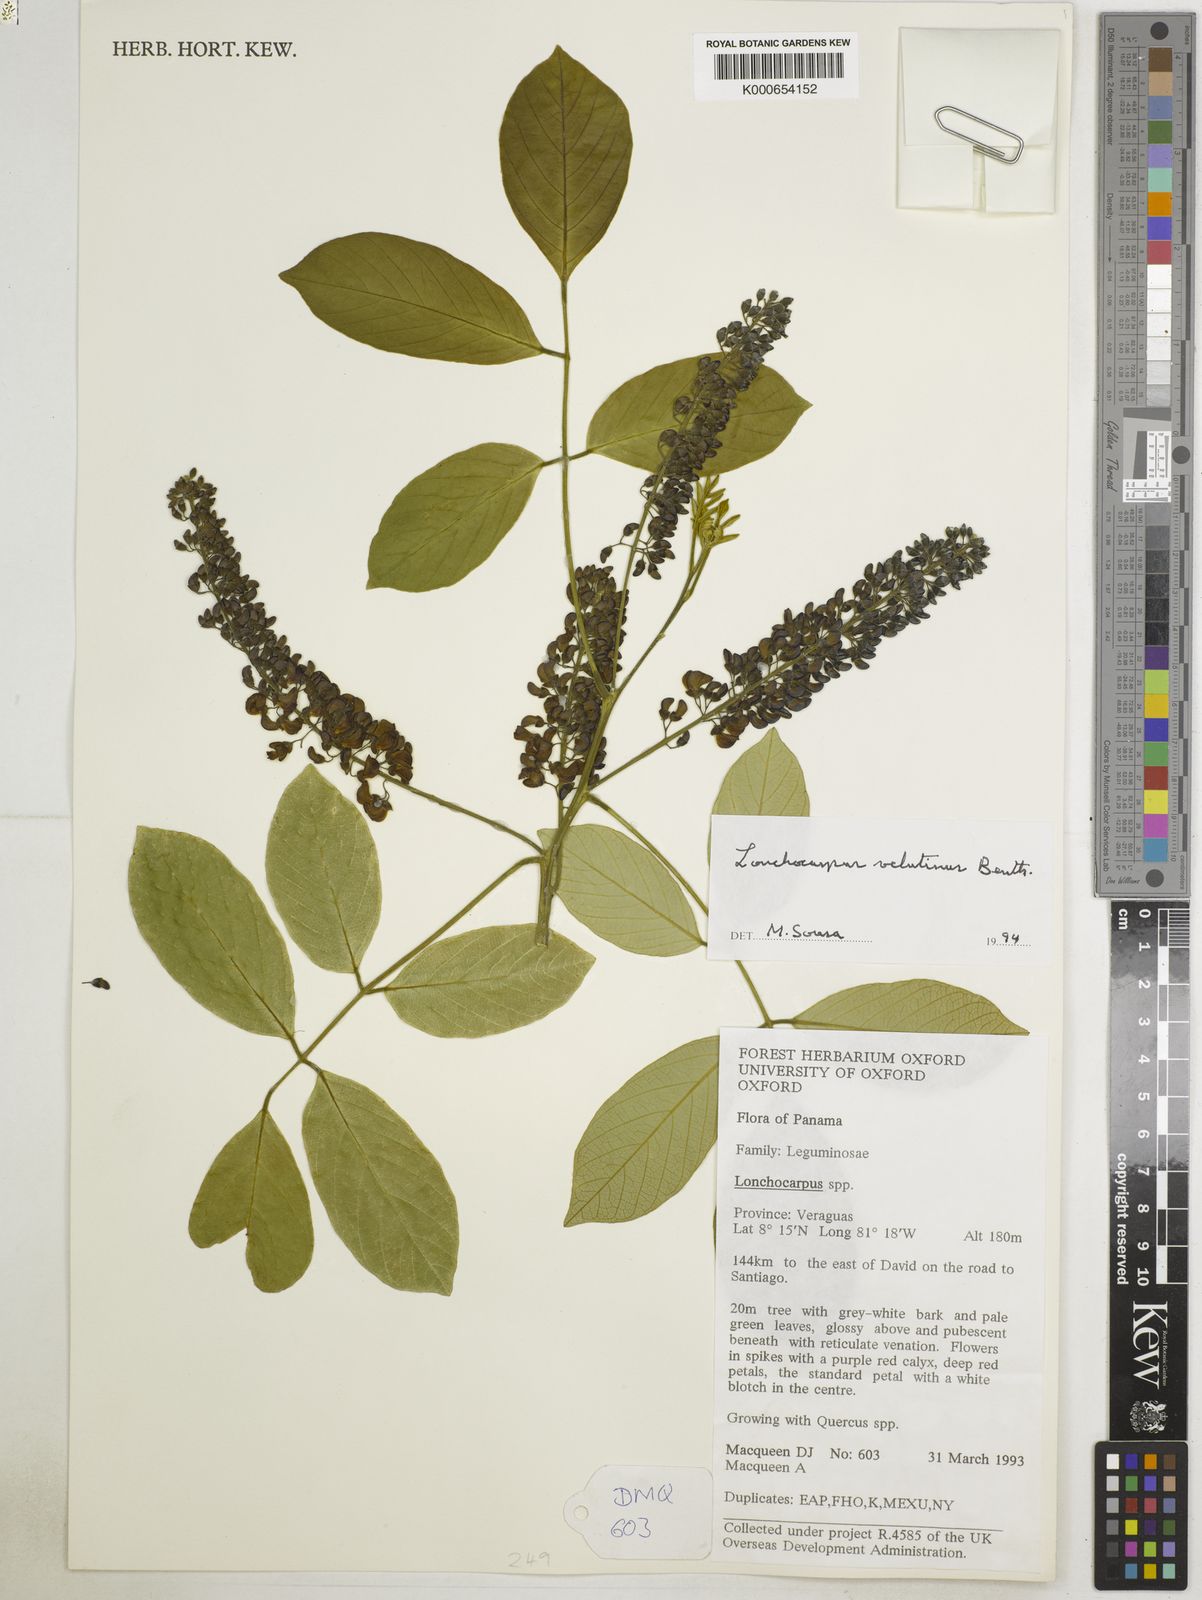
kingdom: Plantae
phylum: Tracheophyta
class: Magnoliopsida
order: Fabales
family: Fabaceae
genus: Lonchocarpus
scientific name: Lonchocarpus velutinus
